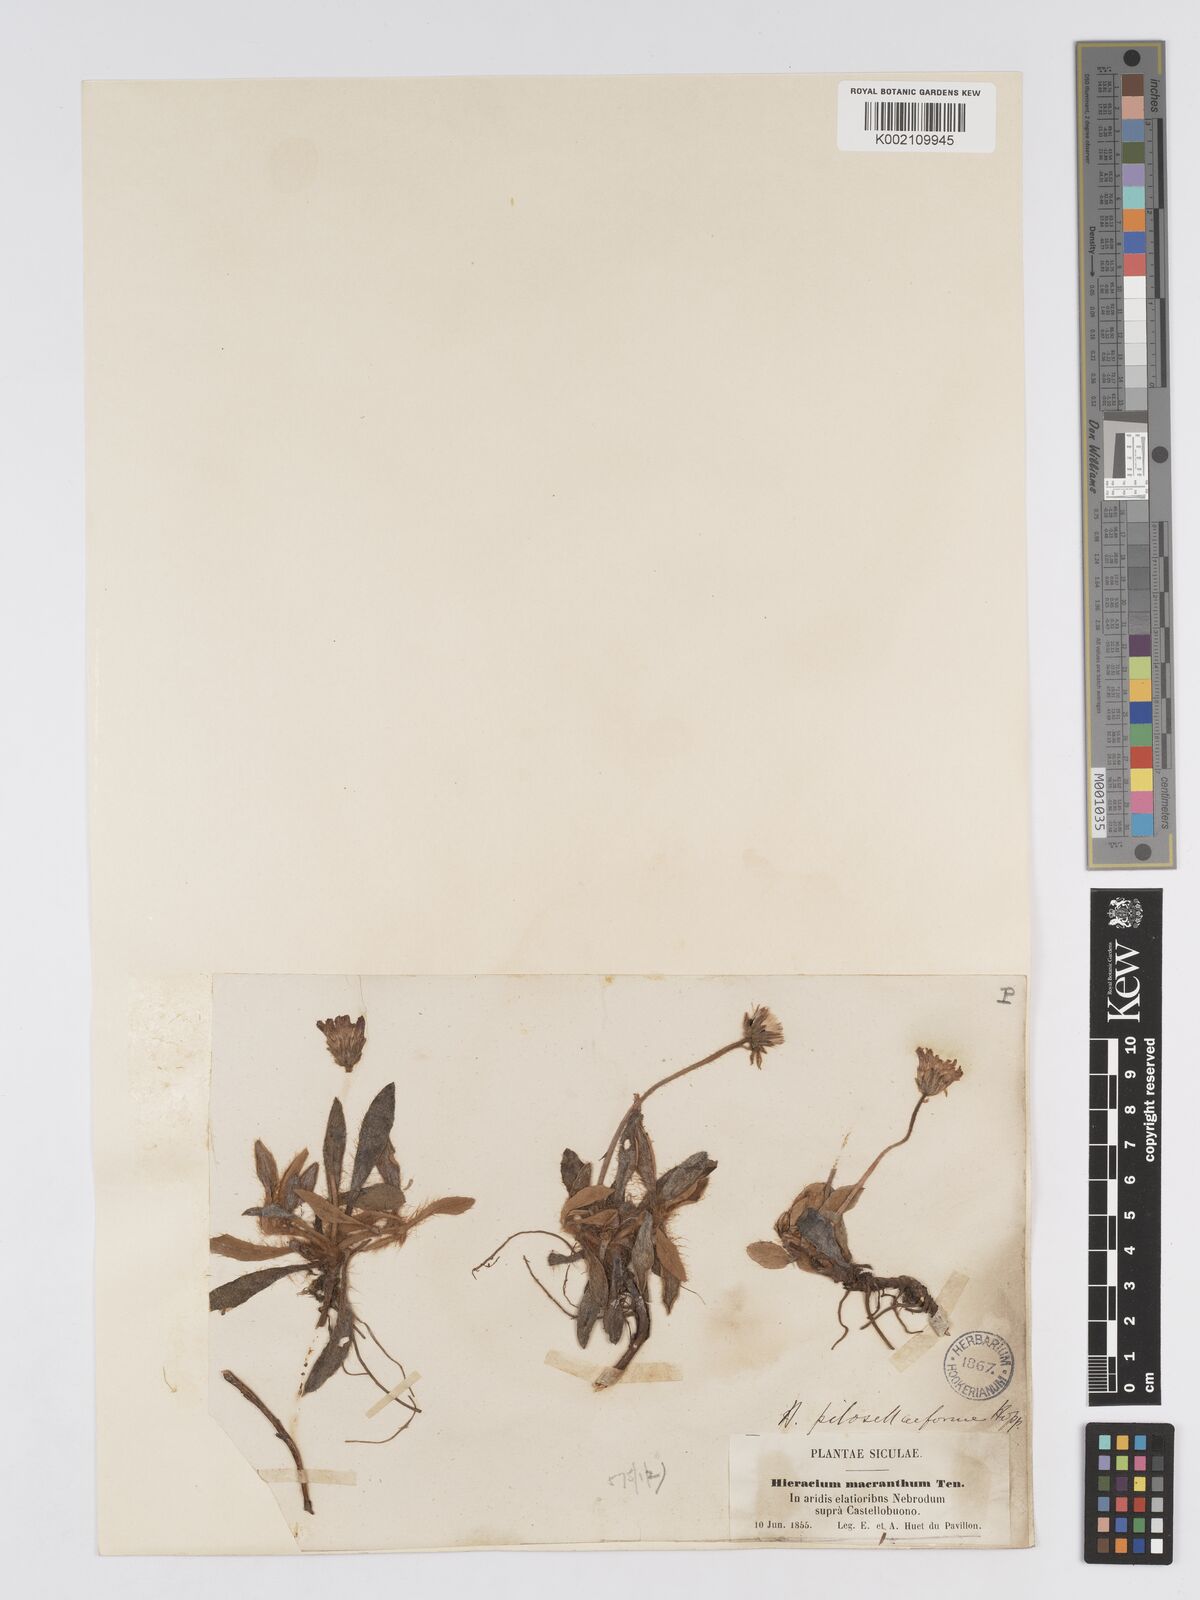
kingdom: Plantae
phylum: Tracheophyta
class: Magnoliopsida
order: Asterales
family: Asteraceae
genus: Pilosella
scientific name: Pilosella hoppeana
